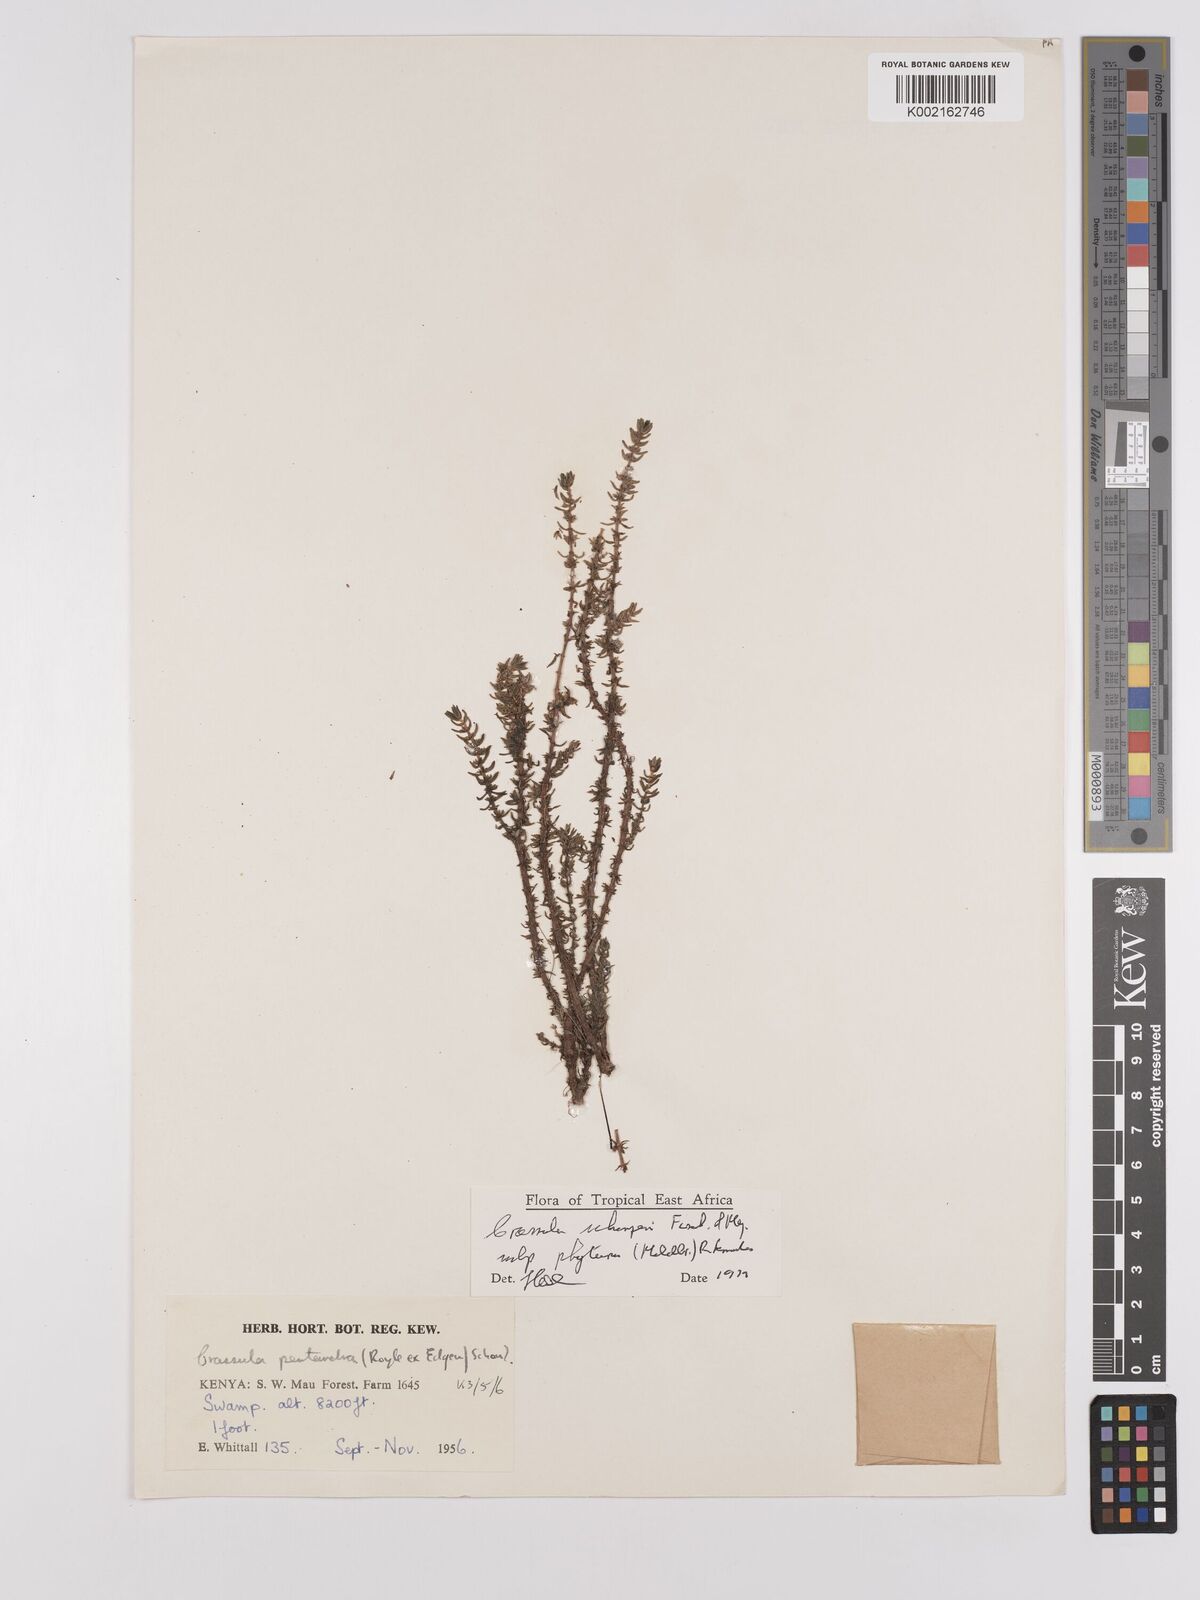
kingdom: Plantae
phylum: Tracheophyta
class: Magnoliopsida
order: Saxifragales
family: Crassulaceae
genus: Crassula
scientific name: Crassula schimperi
